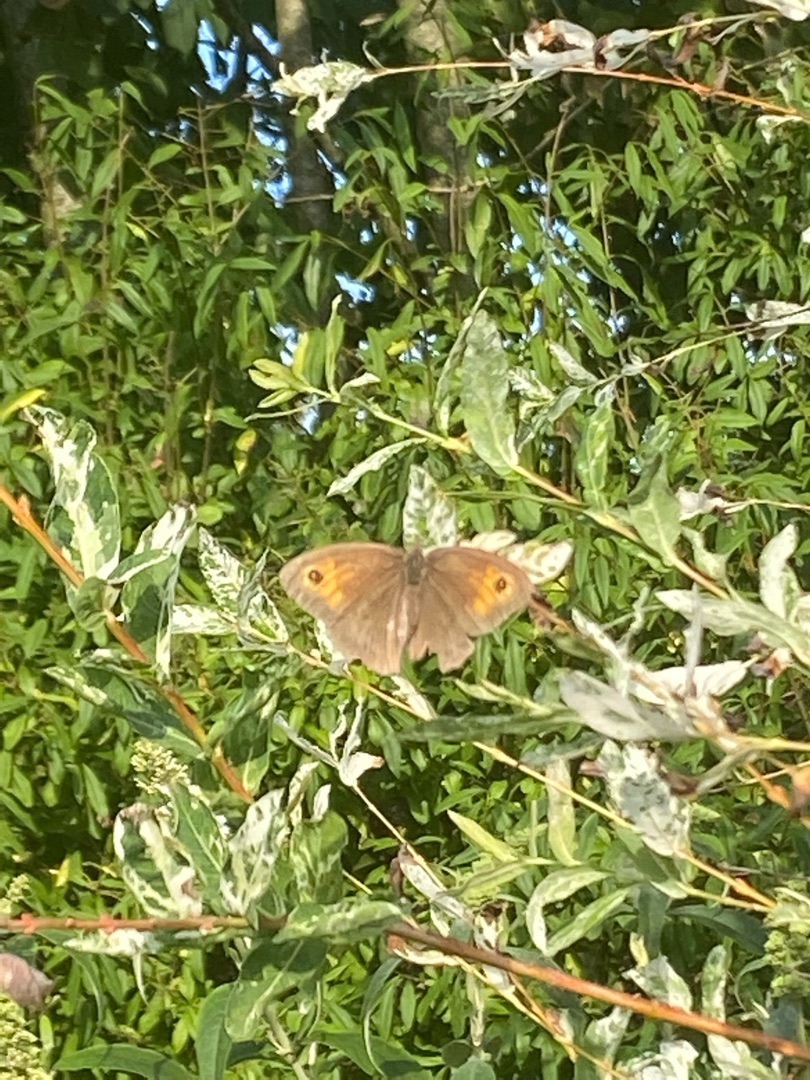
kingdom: Animalia
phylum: Arthropoda
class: Insecta
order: Lepidoptera
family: Nymphalidae
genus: Maniola
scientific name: Maniola jurtina
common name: Græsrandøje
